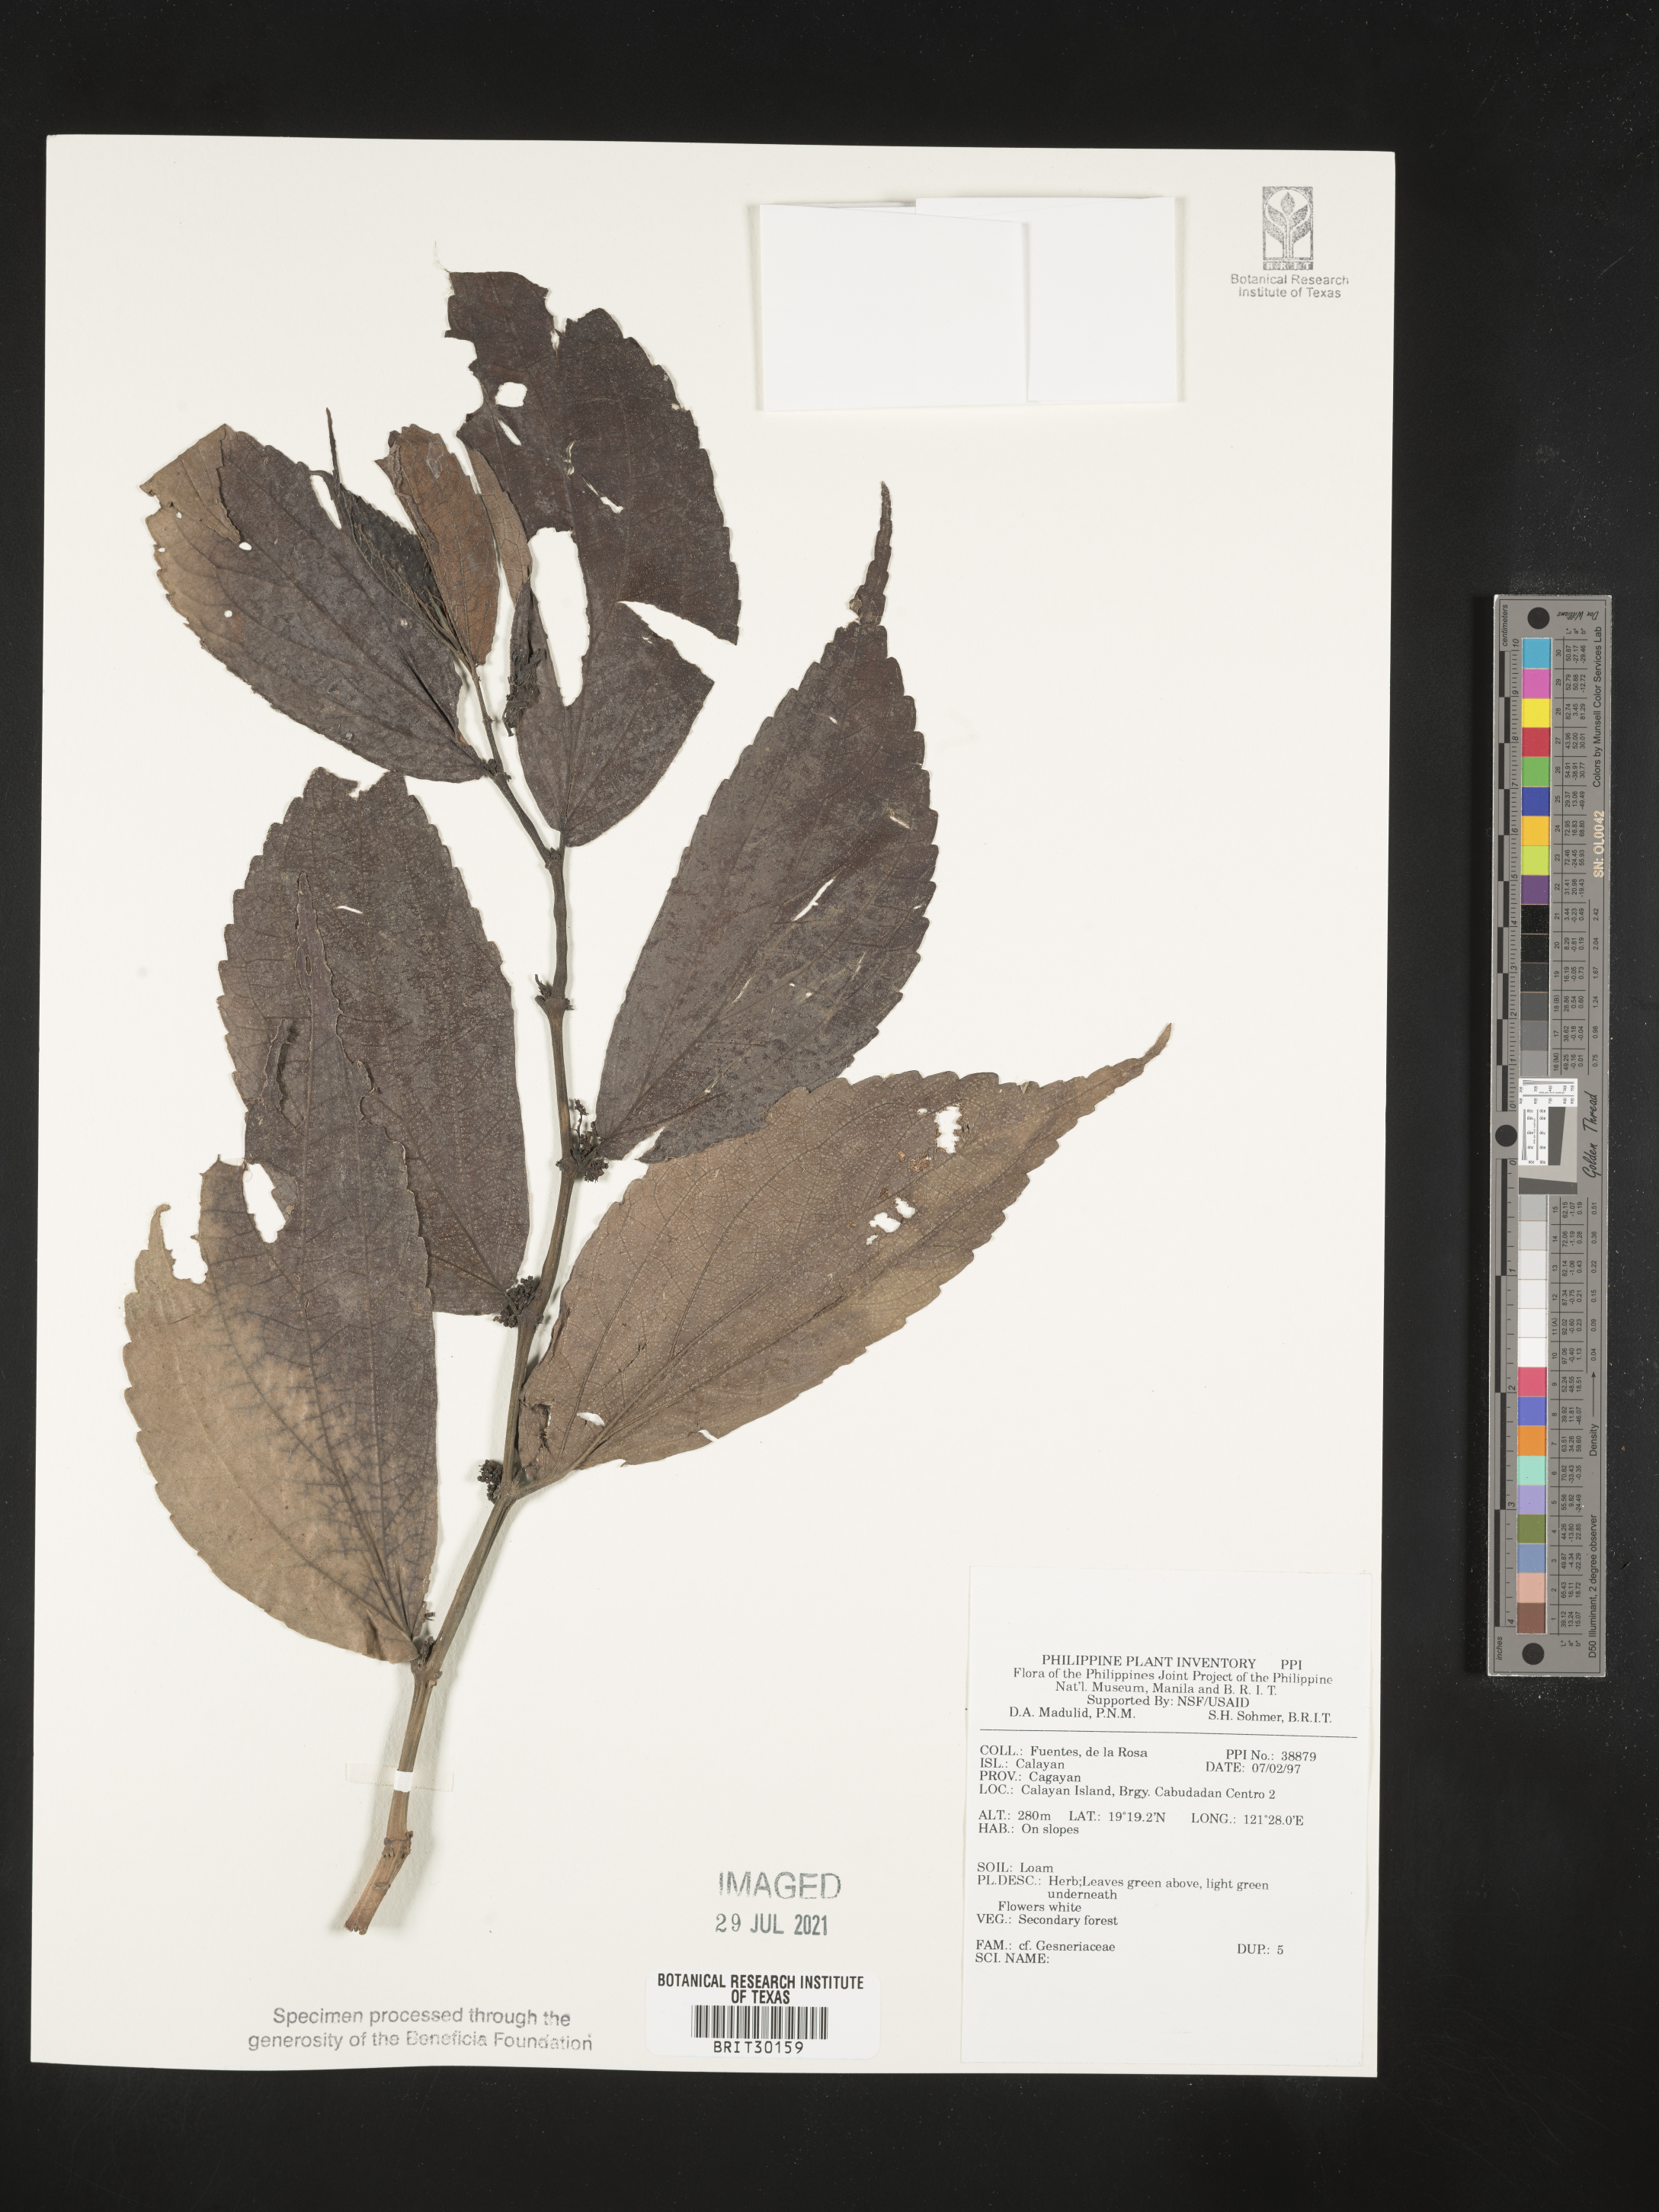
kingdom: Plantae
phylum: Tracheophyta
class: Magnoliopsida
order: Lamiales
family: Gesneriaceae
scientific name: Gesneriaceae
